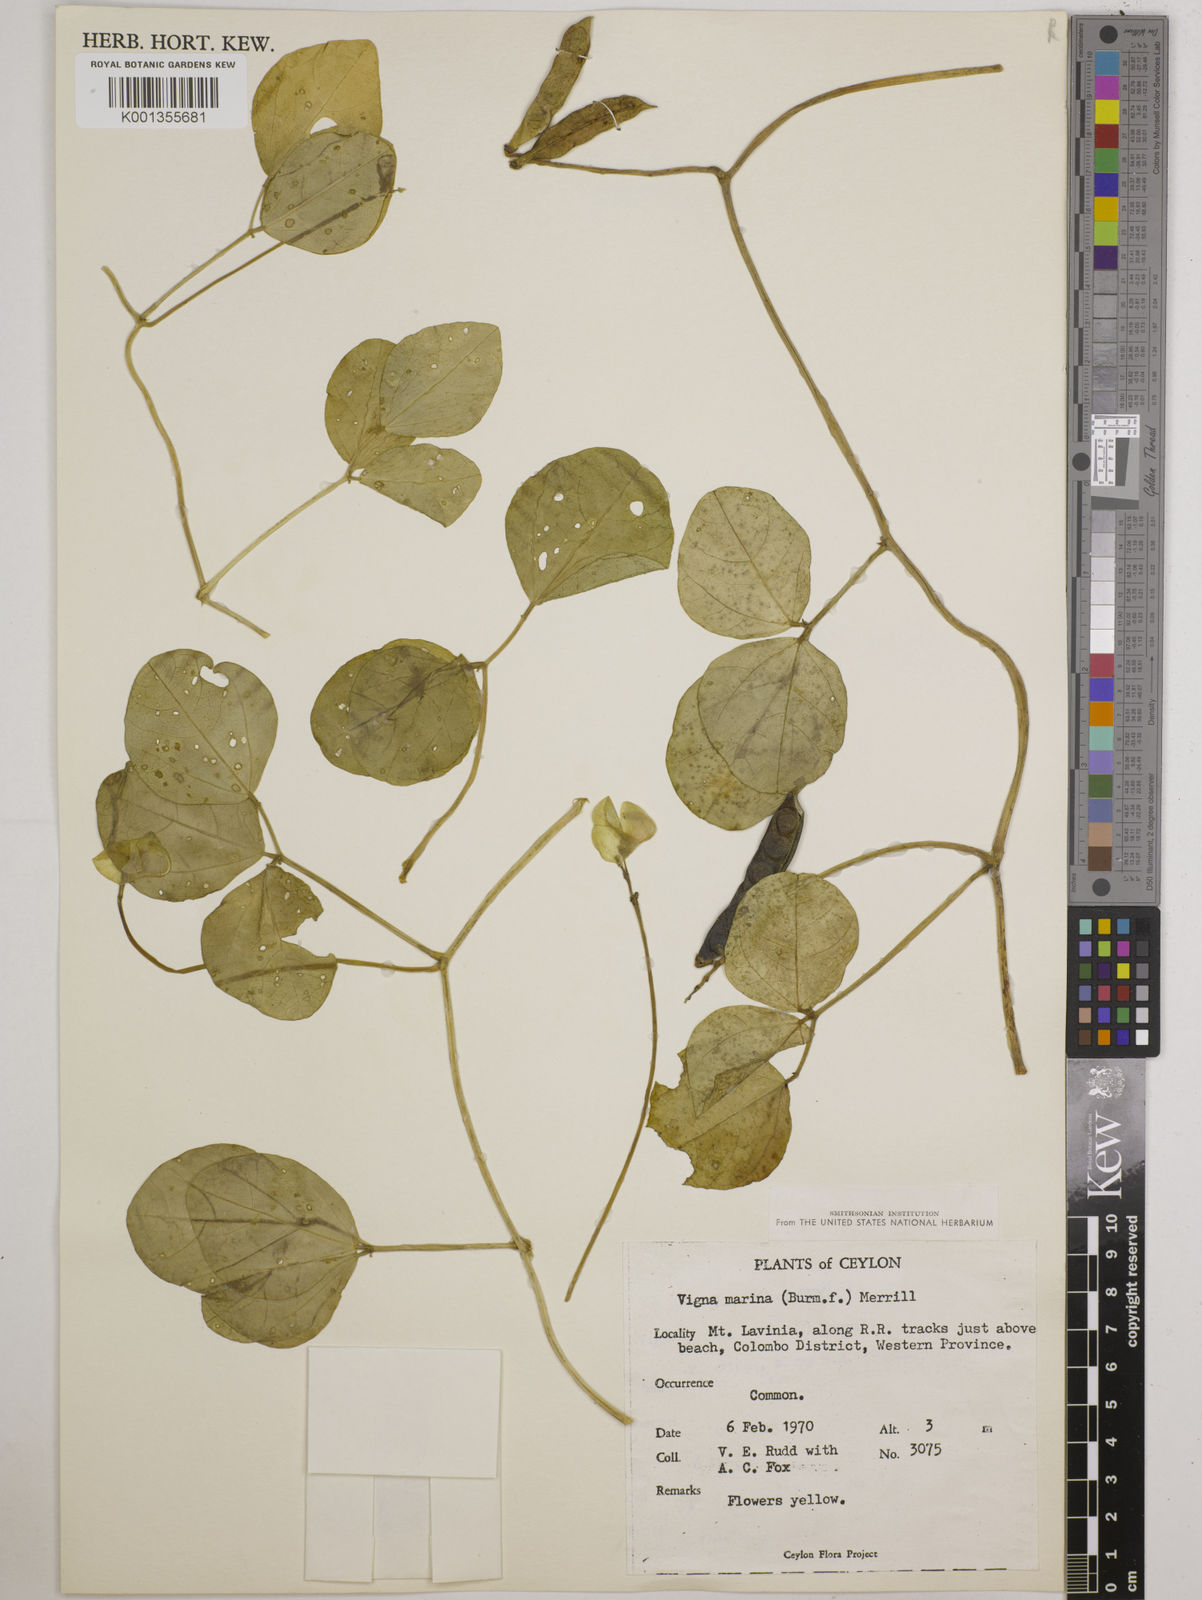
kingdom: Plantae
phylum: Tracheophyta
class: Magnoliopsida
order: Fabales
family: Fabaceae
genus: Vigna
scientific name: Vigna marina
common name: Dune-bean
